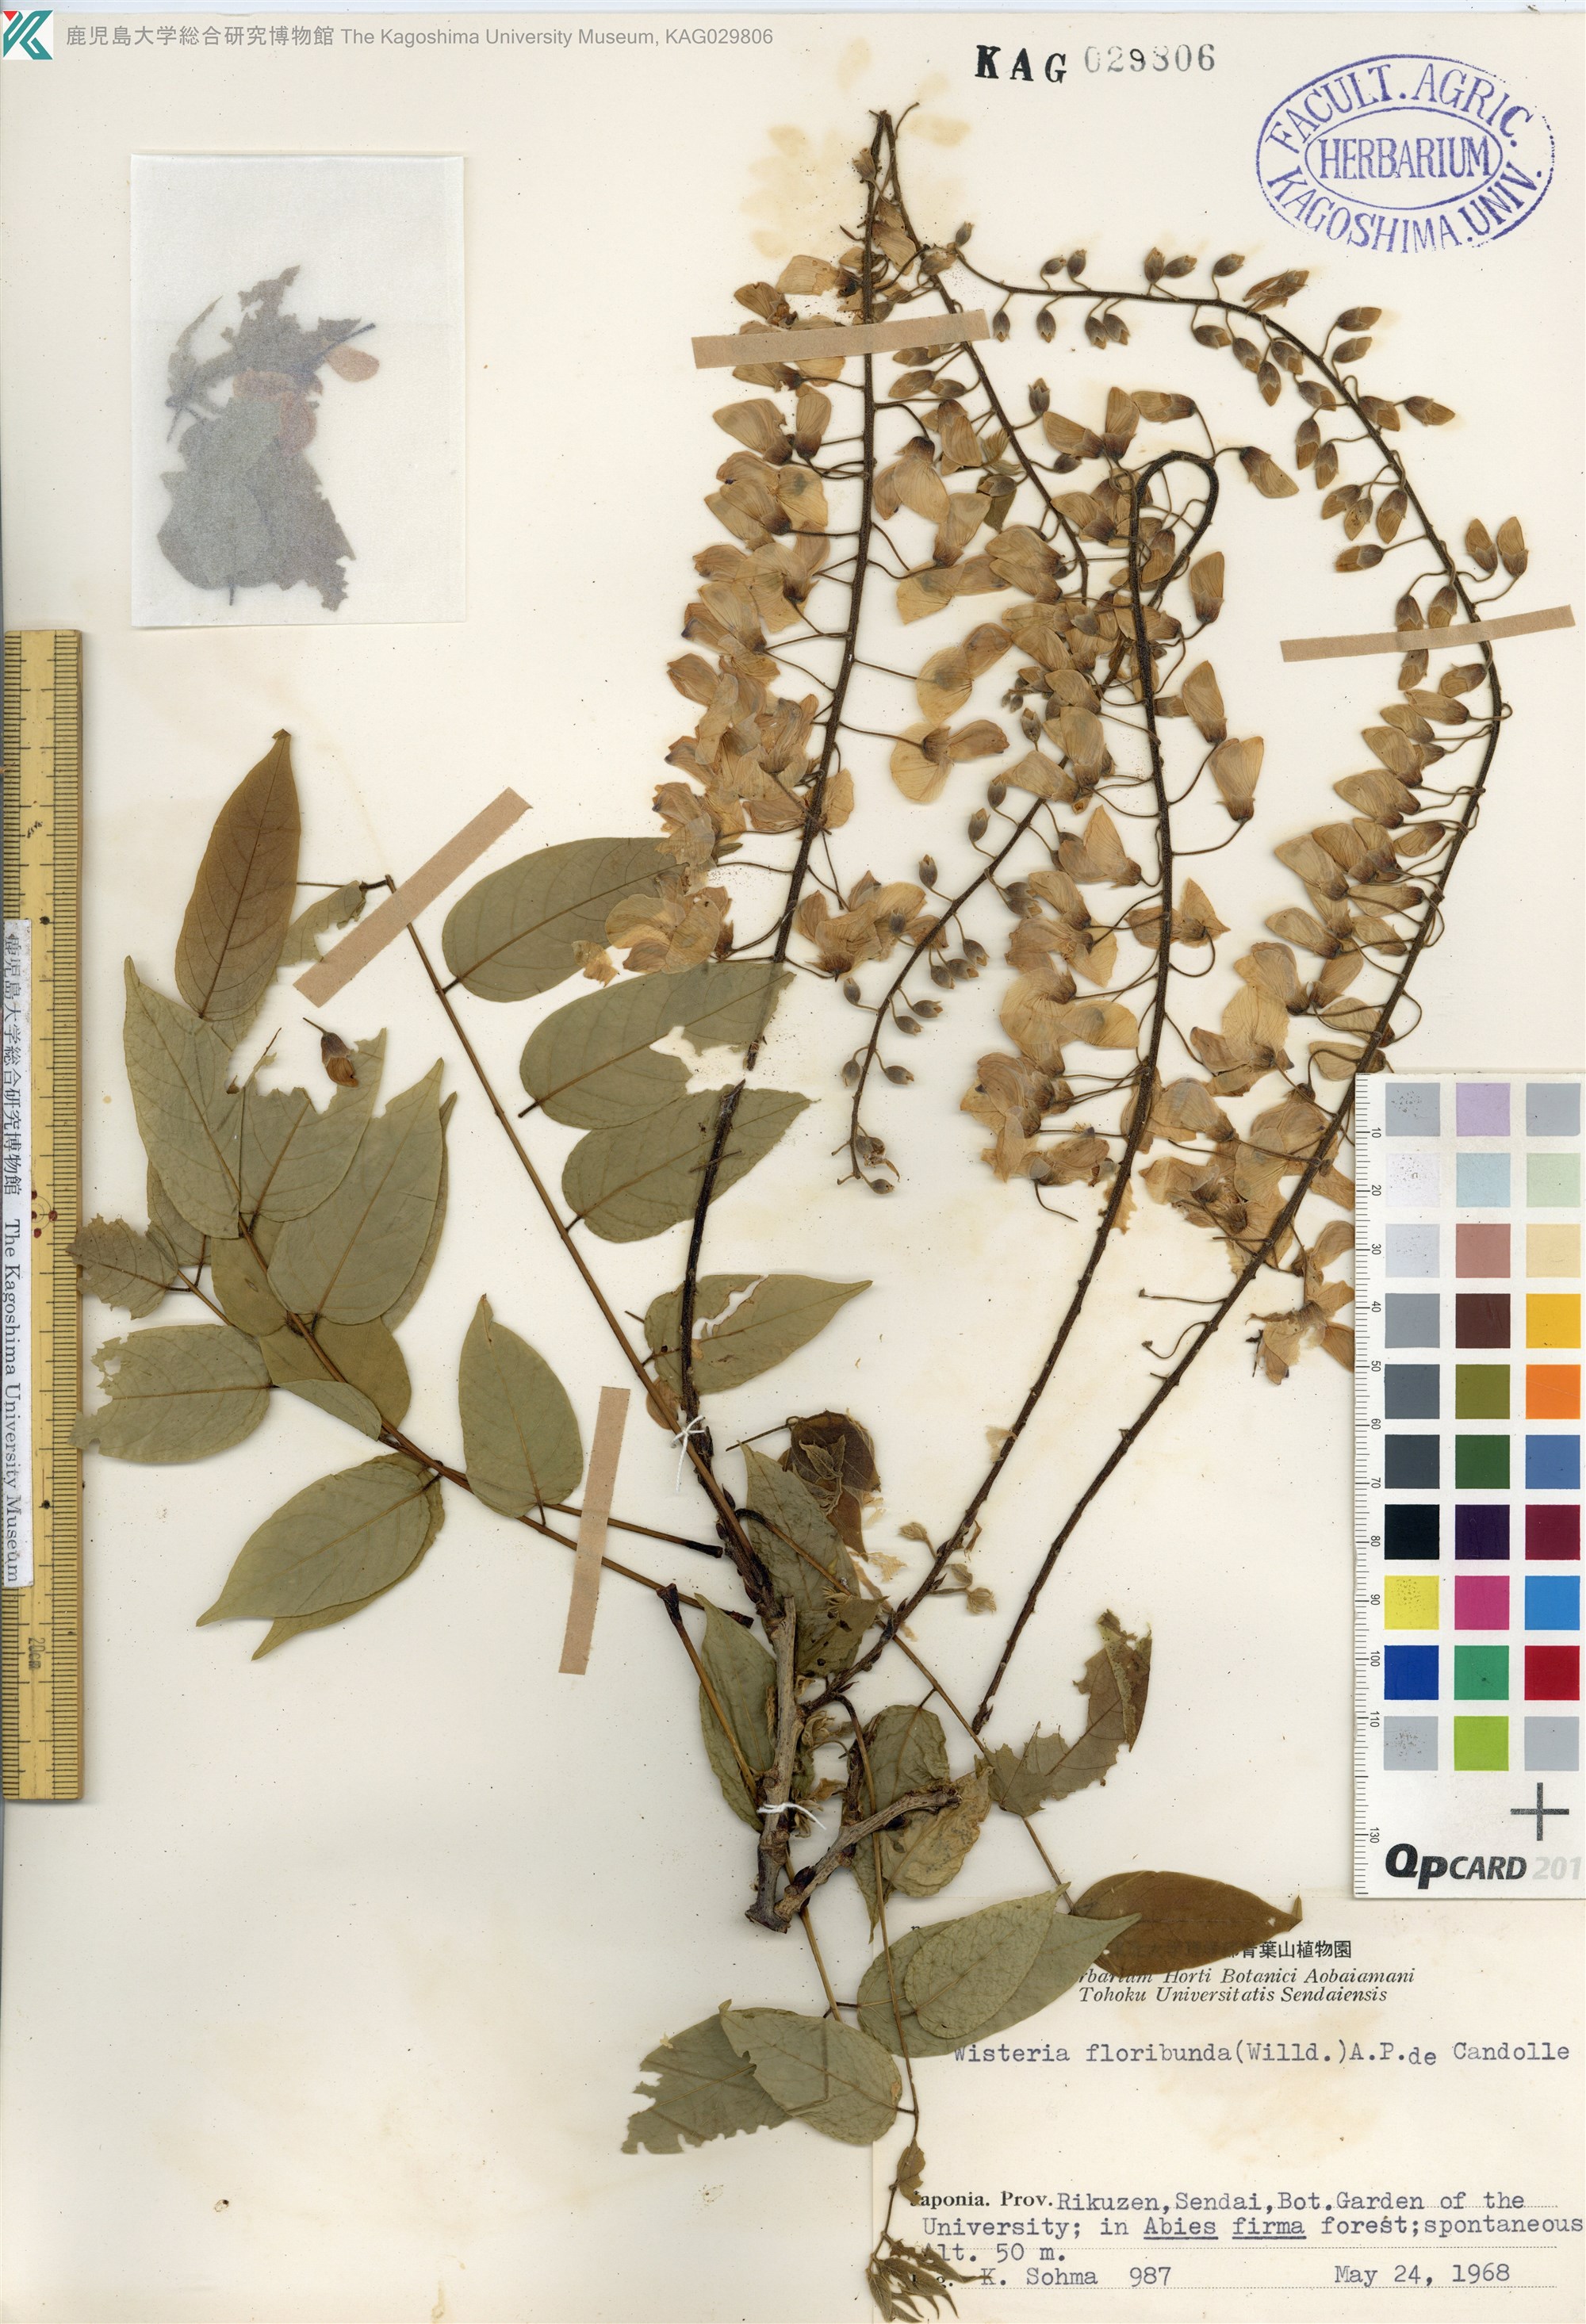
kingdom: Plantae
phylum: Tracheophyta
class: Magnoliopsida
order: Fabales
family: Fabaceae
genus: Wisteria
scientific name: Wisteria floribunda
